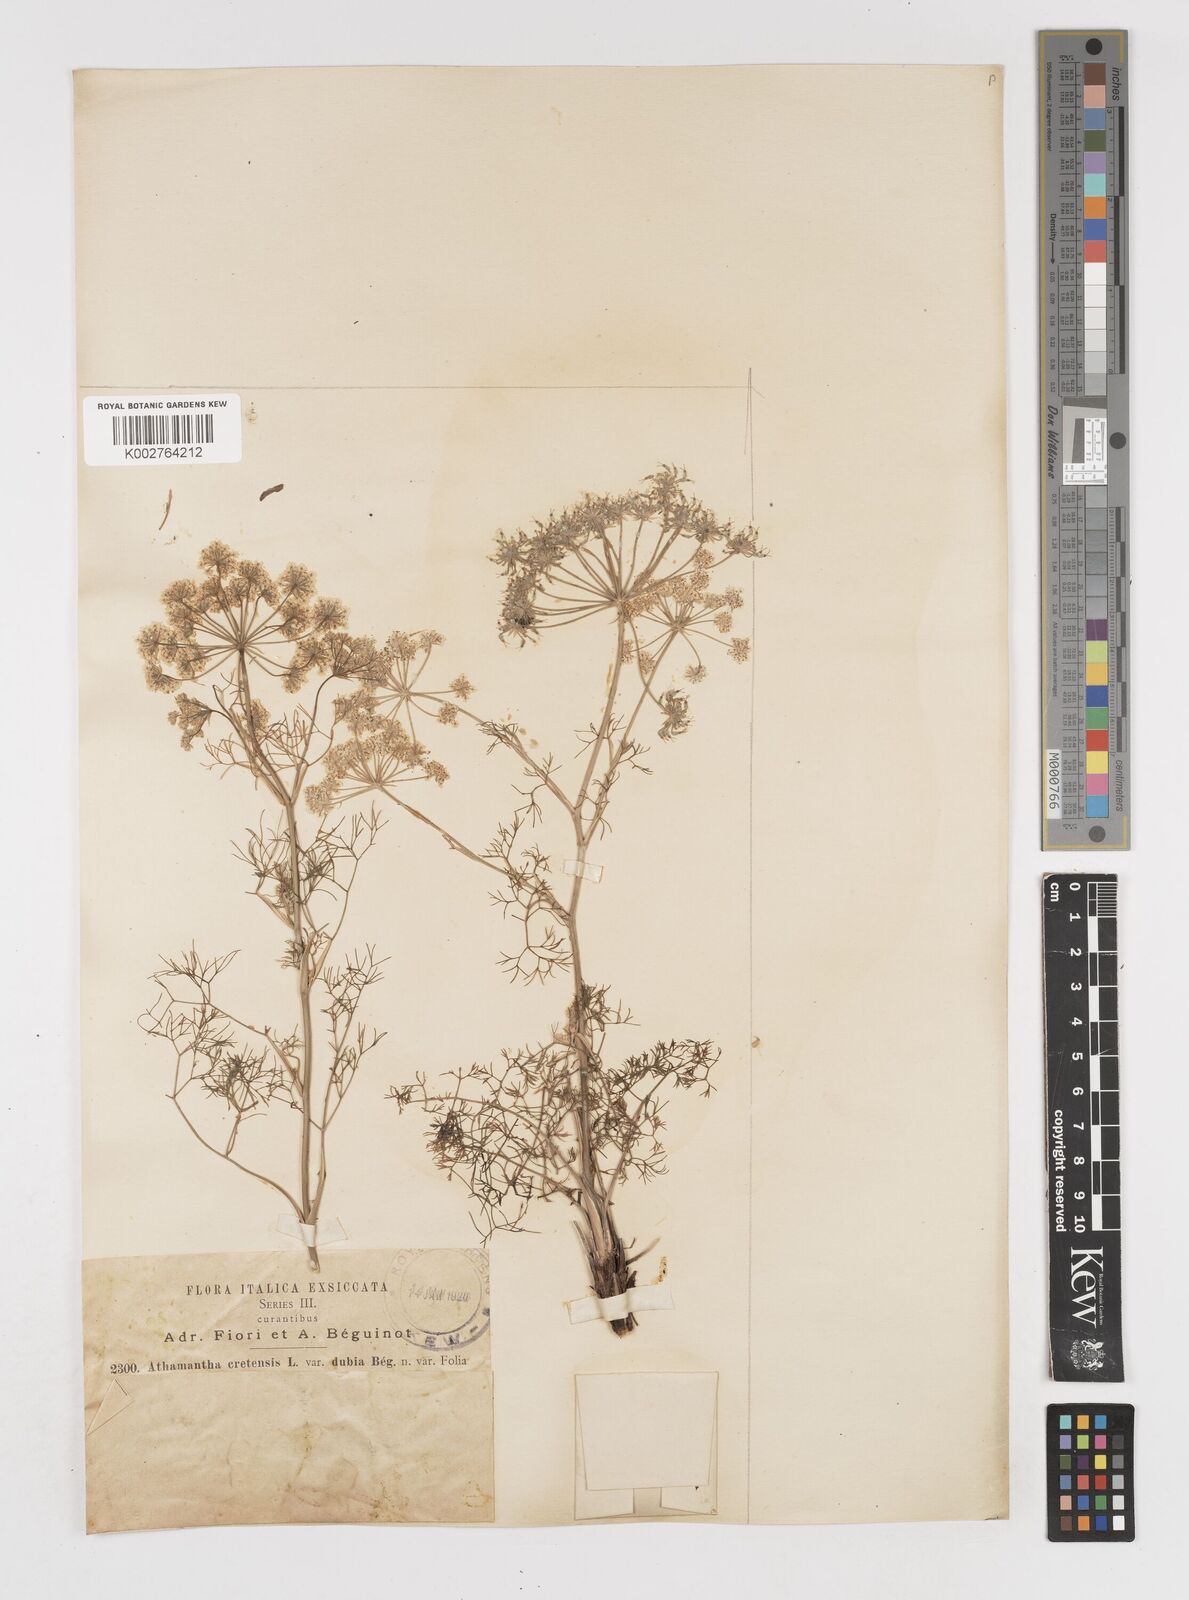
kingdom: Plantae
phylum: Tracheophyta
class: Magnoliopsida
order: Apiales
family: Apiaceae
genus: Athamanta
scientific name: Athamanta cretensis
